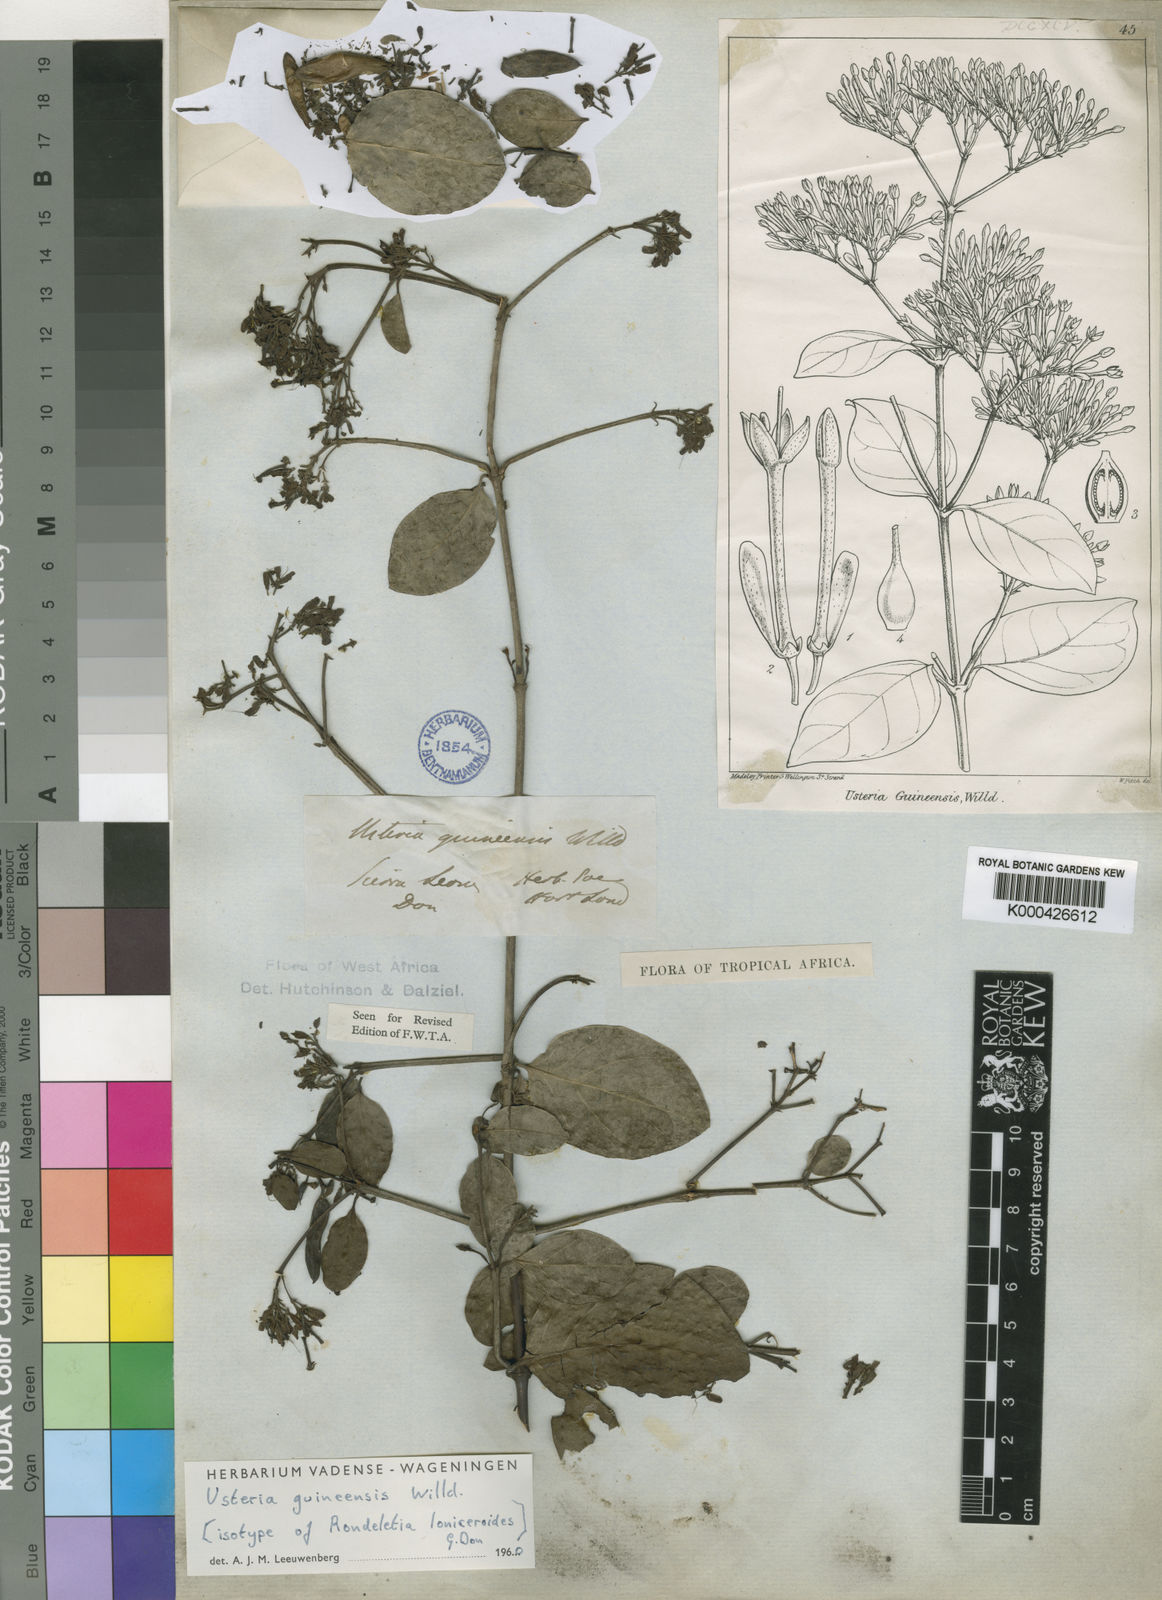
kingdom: Plantae
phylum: Tracheophyta
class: Magnoliopsida
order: Gentianales
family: Loganiaceae
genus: Usteria
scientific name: Usteria guineensis
